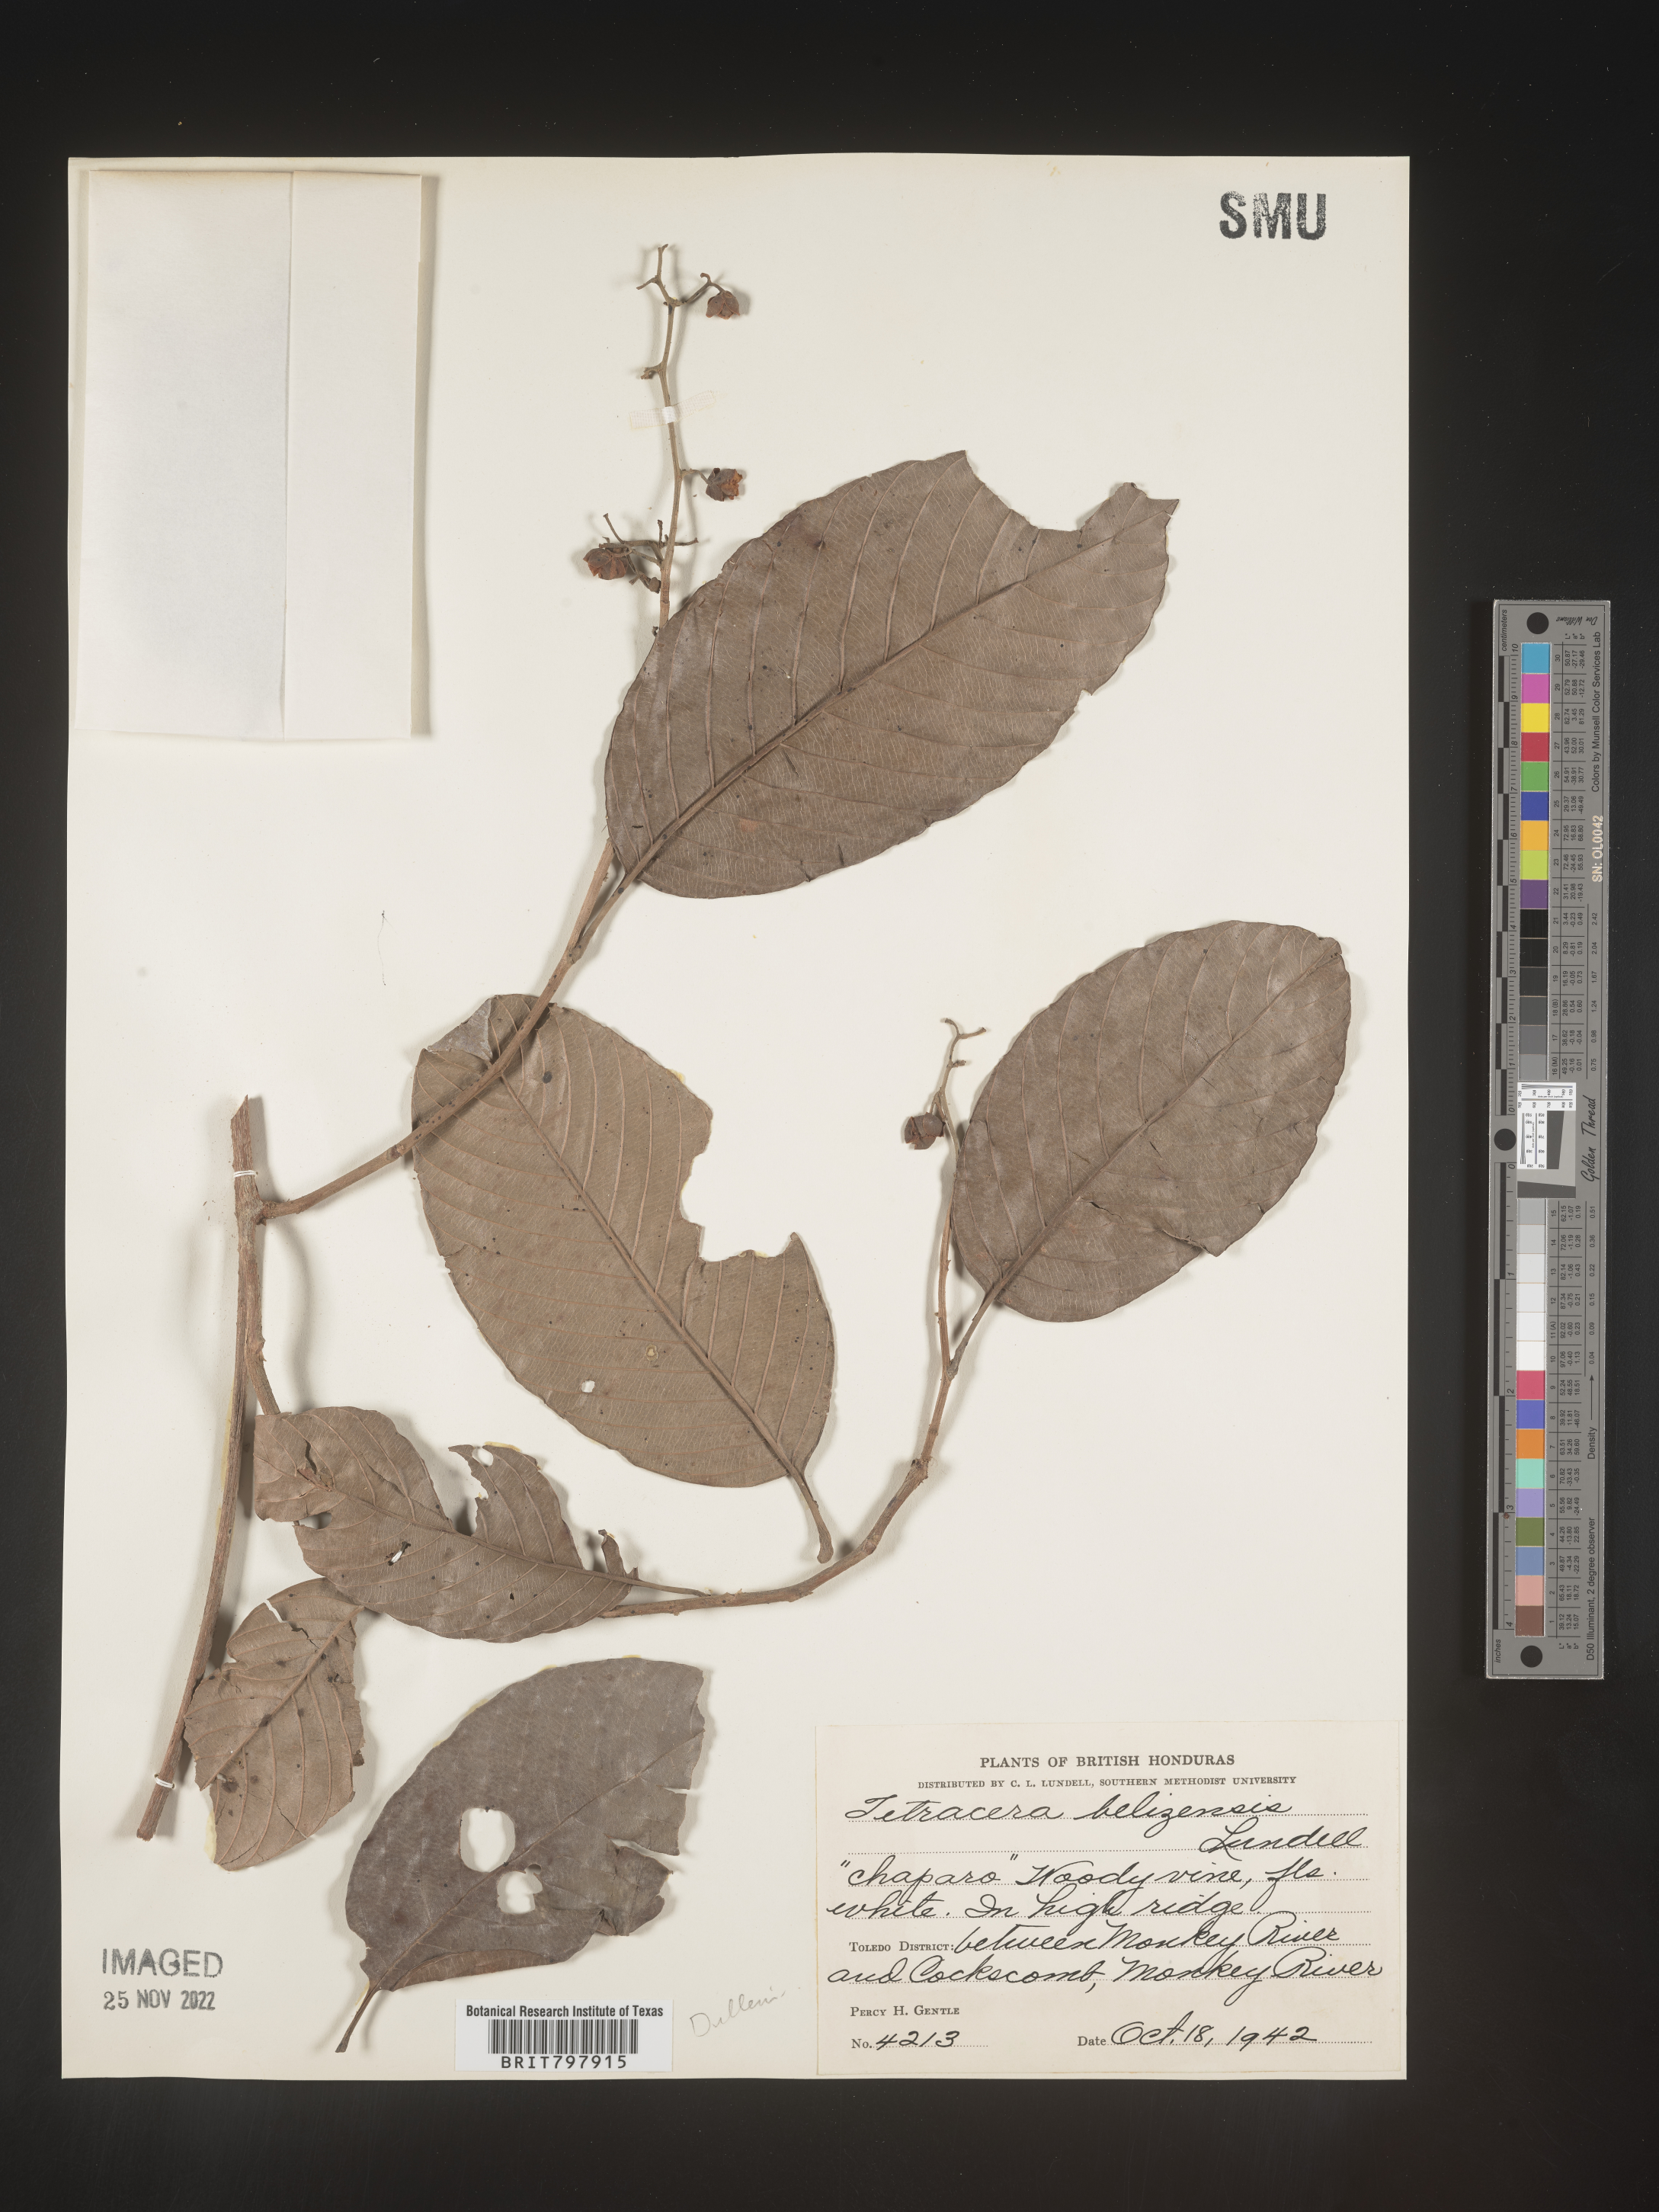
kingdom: Plantae
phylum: Tracheophyta
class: Magnoliopsida
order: Dilleniales
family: Dilleniaceae
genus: Tetracera
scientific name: Tetracera
